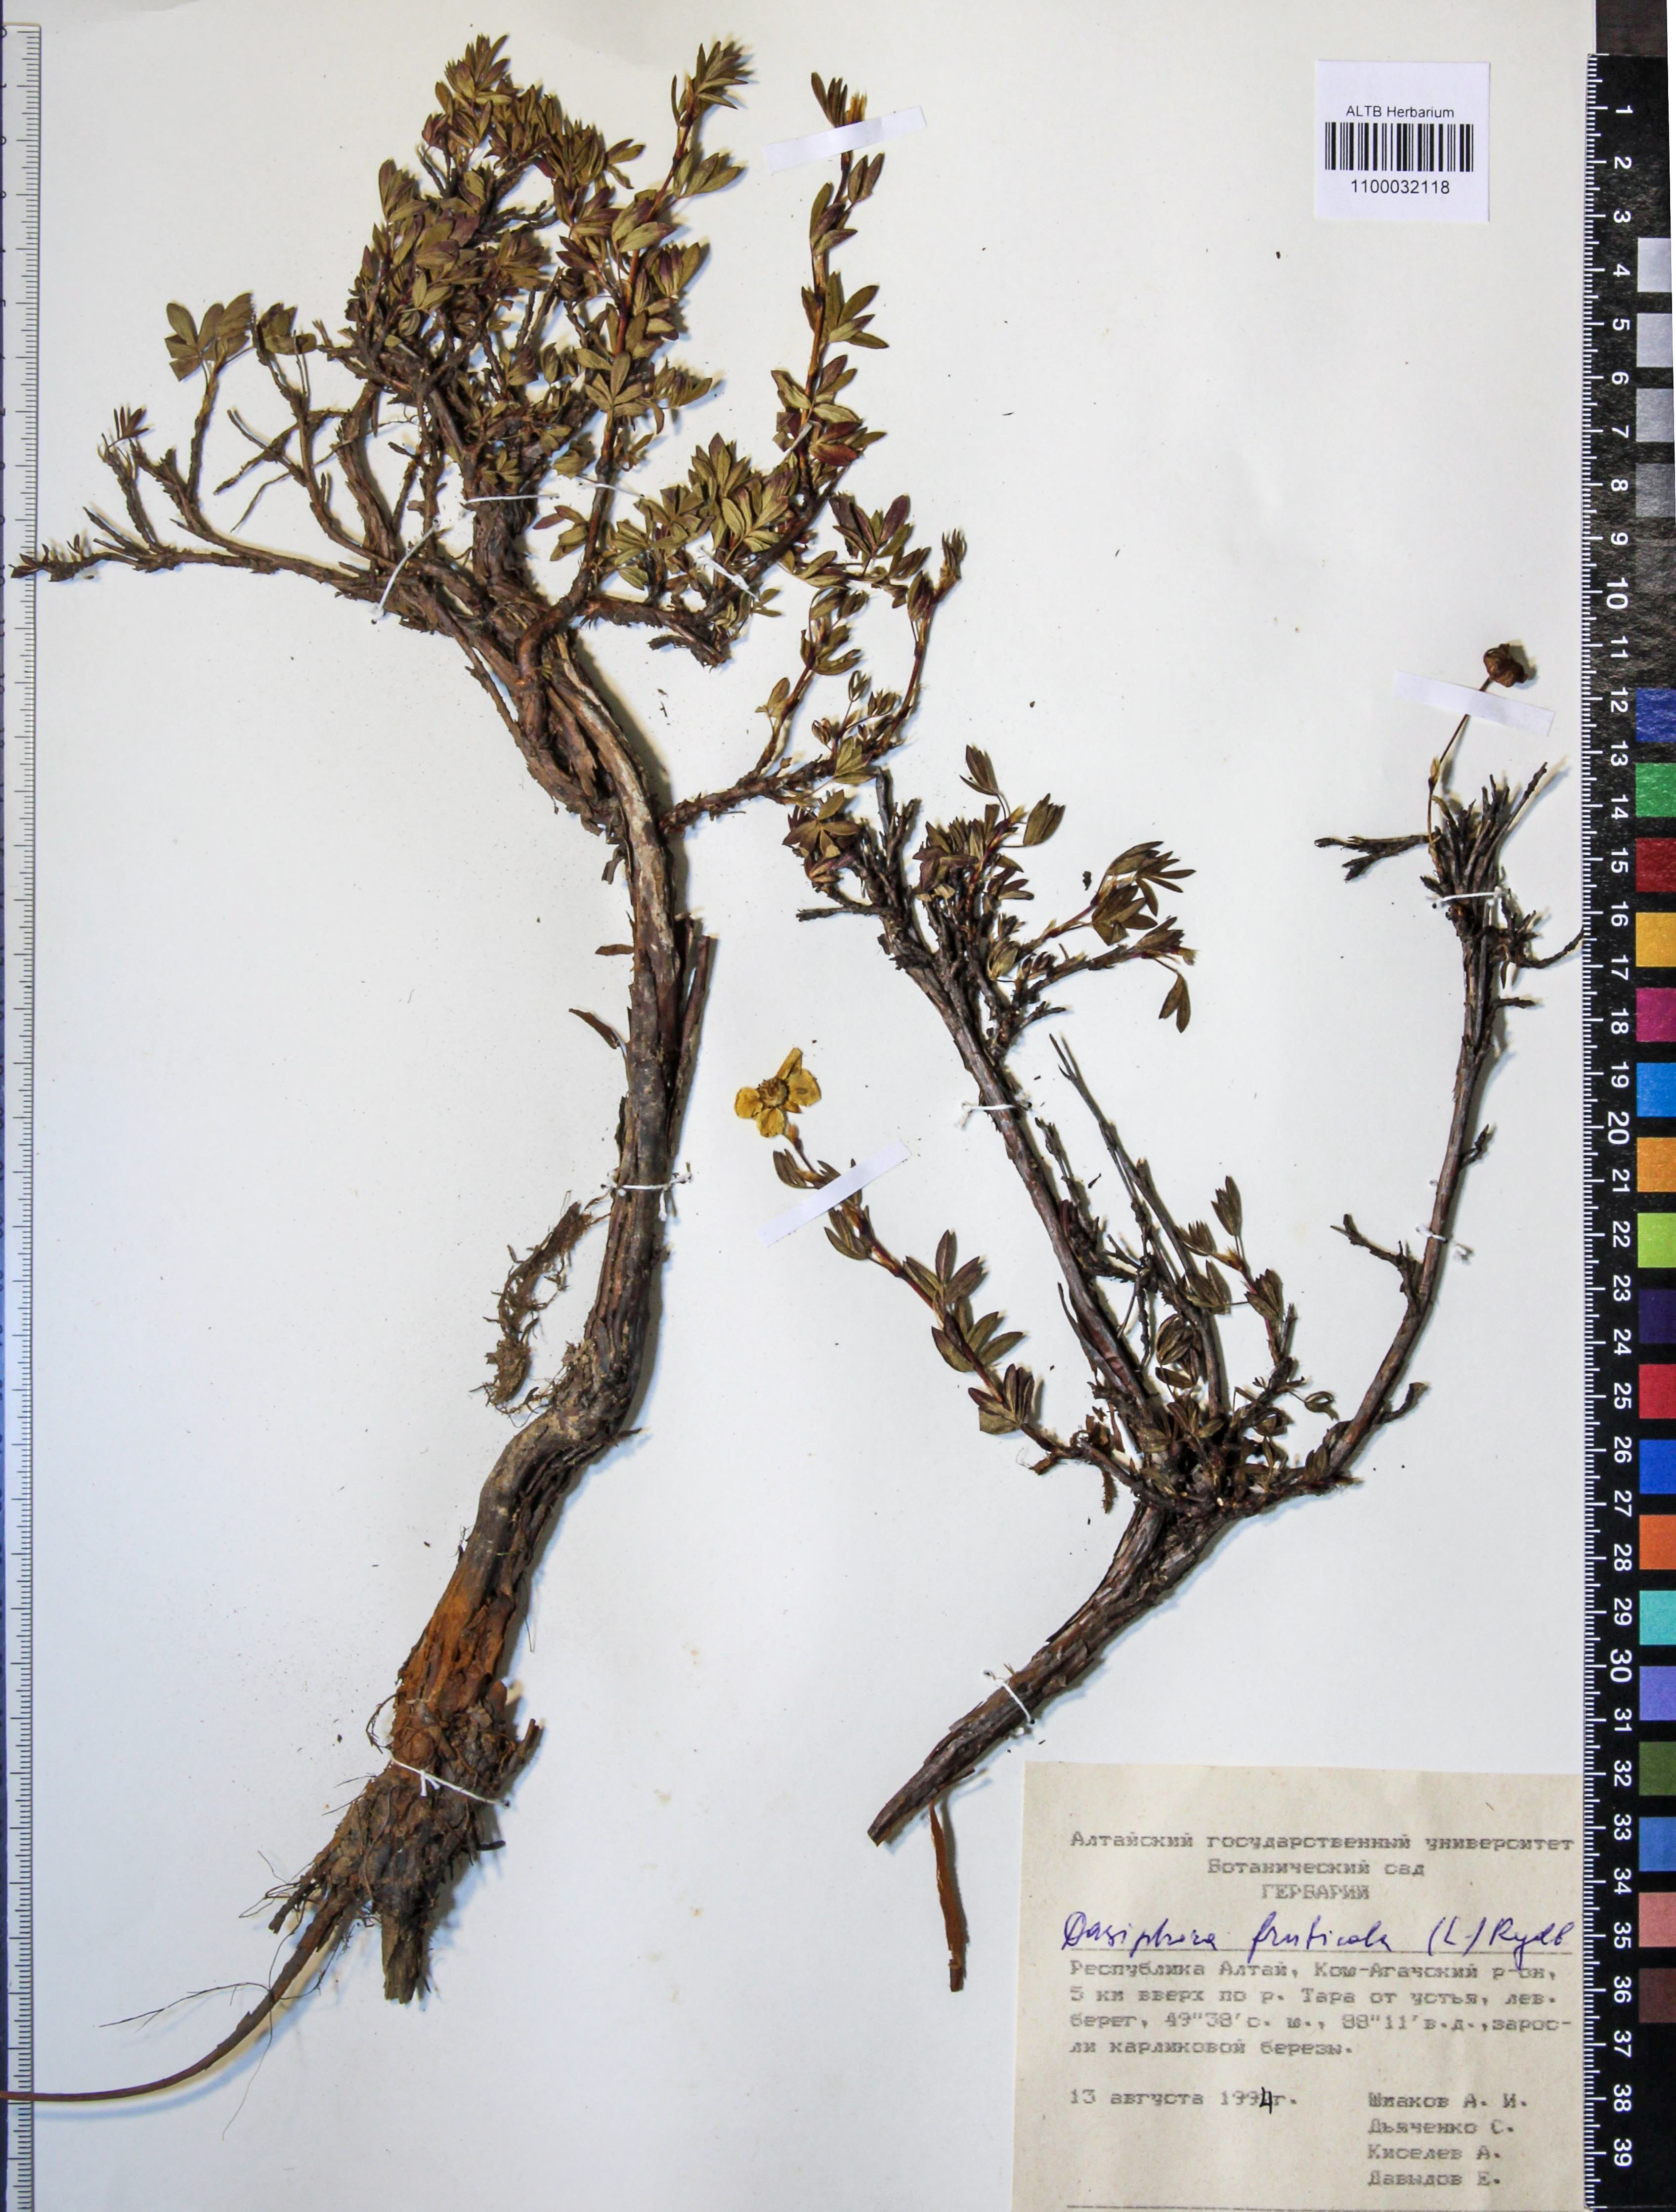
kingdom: Plantae
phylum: Tracheophyta
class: Magnoliopsida
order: Rosales
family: Rosaceae
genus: Dasiphora
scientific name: Dasiphora fruticosa
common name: Shrubby cinquefoil
